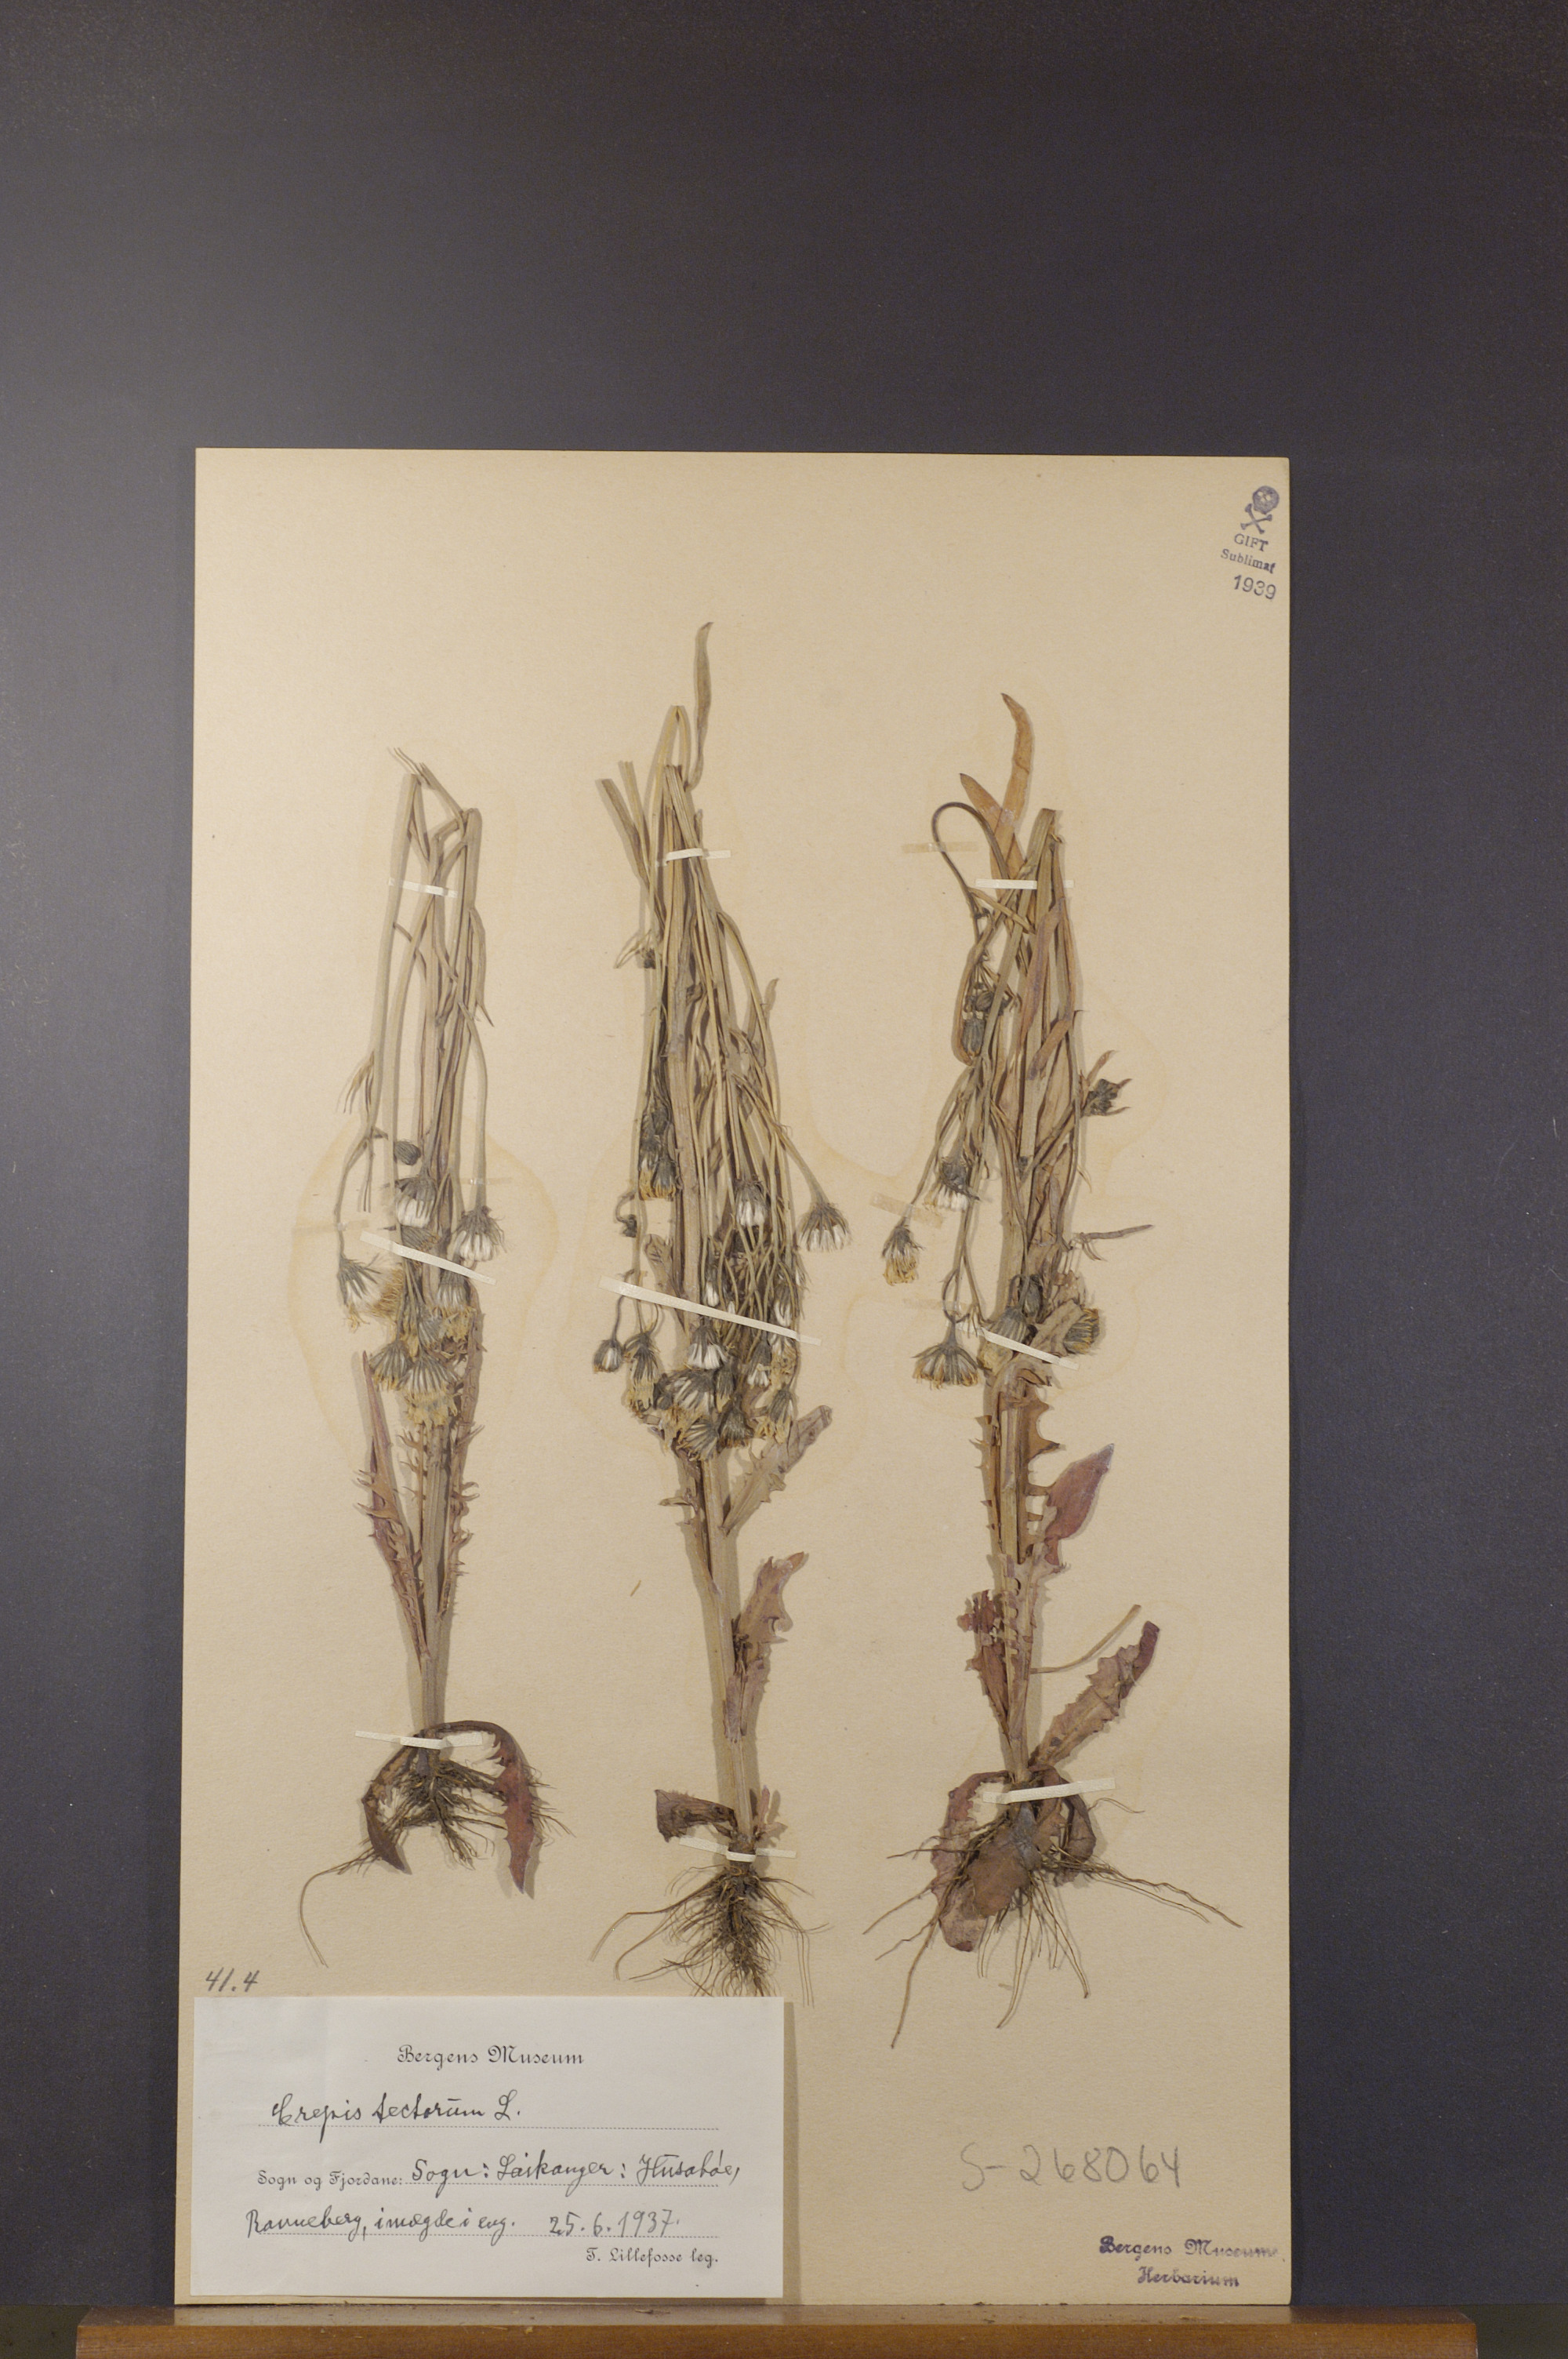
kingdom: Plantae
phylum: Tracheophyta
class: Magnoliopsida
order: Asterales
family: Asteraceae
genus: Crepis
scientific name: Crepis tectorum
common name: Narrow-leaved hawk's-beard
